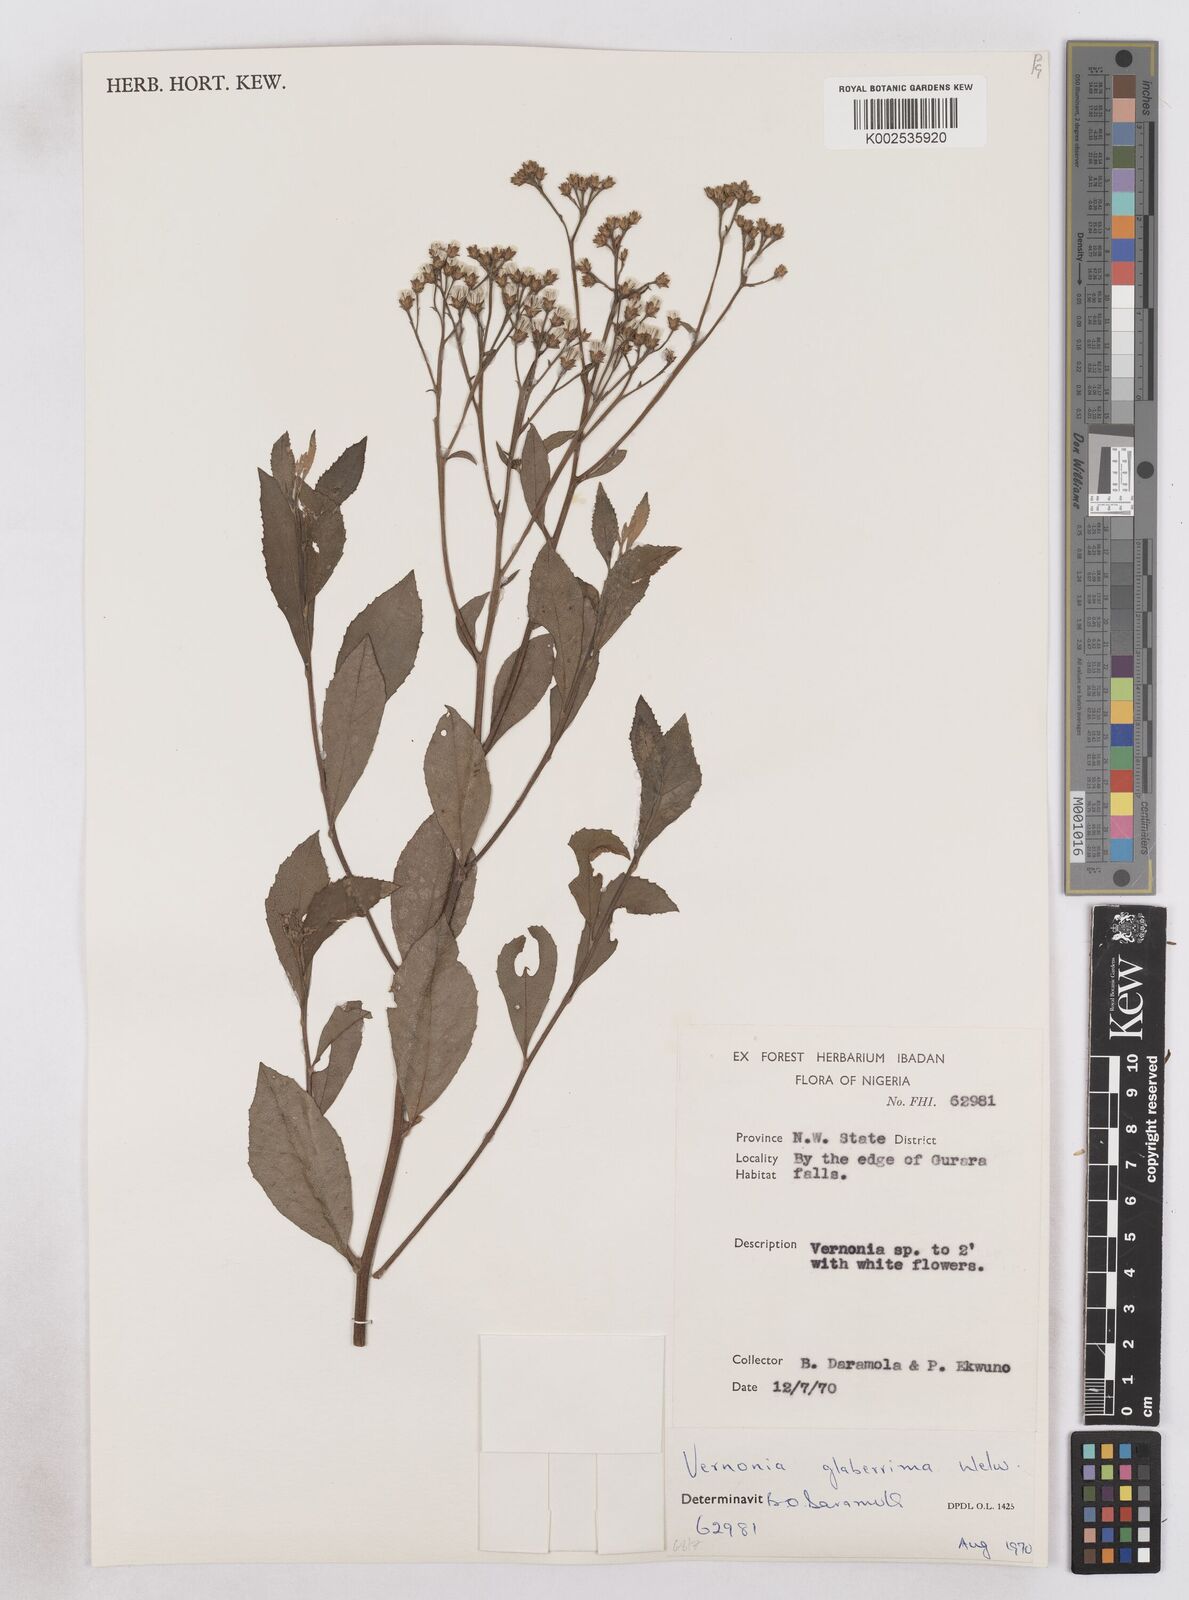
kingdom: Plantae
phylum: Tracheophyta
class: Magnoliopsida
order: Asterales
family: Asteraceae
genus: Gymnanthemum
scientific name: Gymnanthemum glaberrimum
